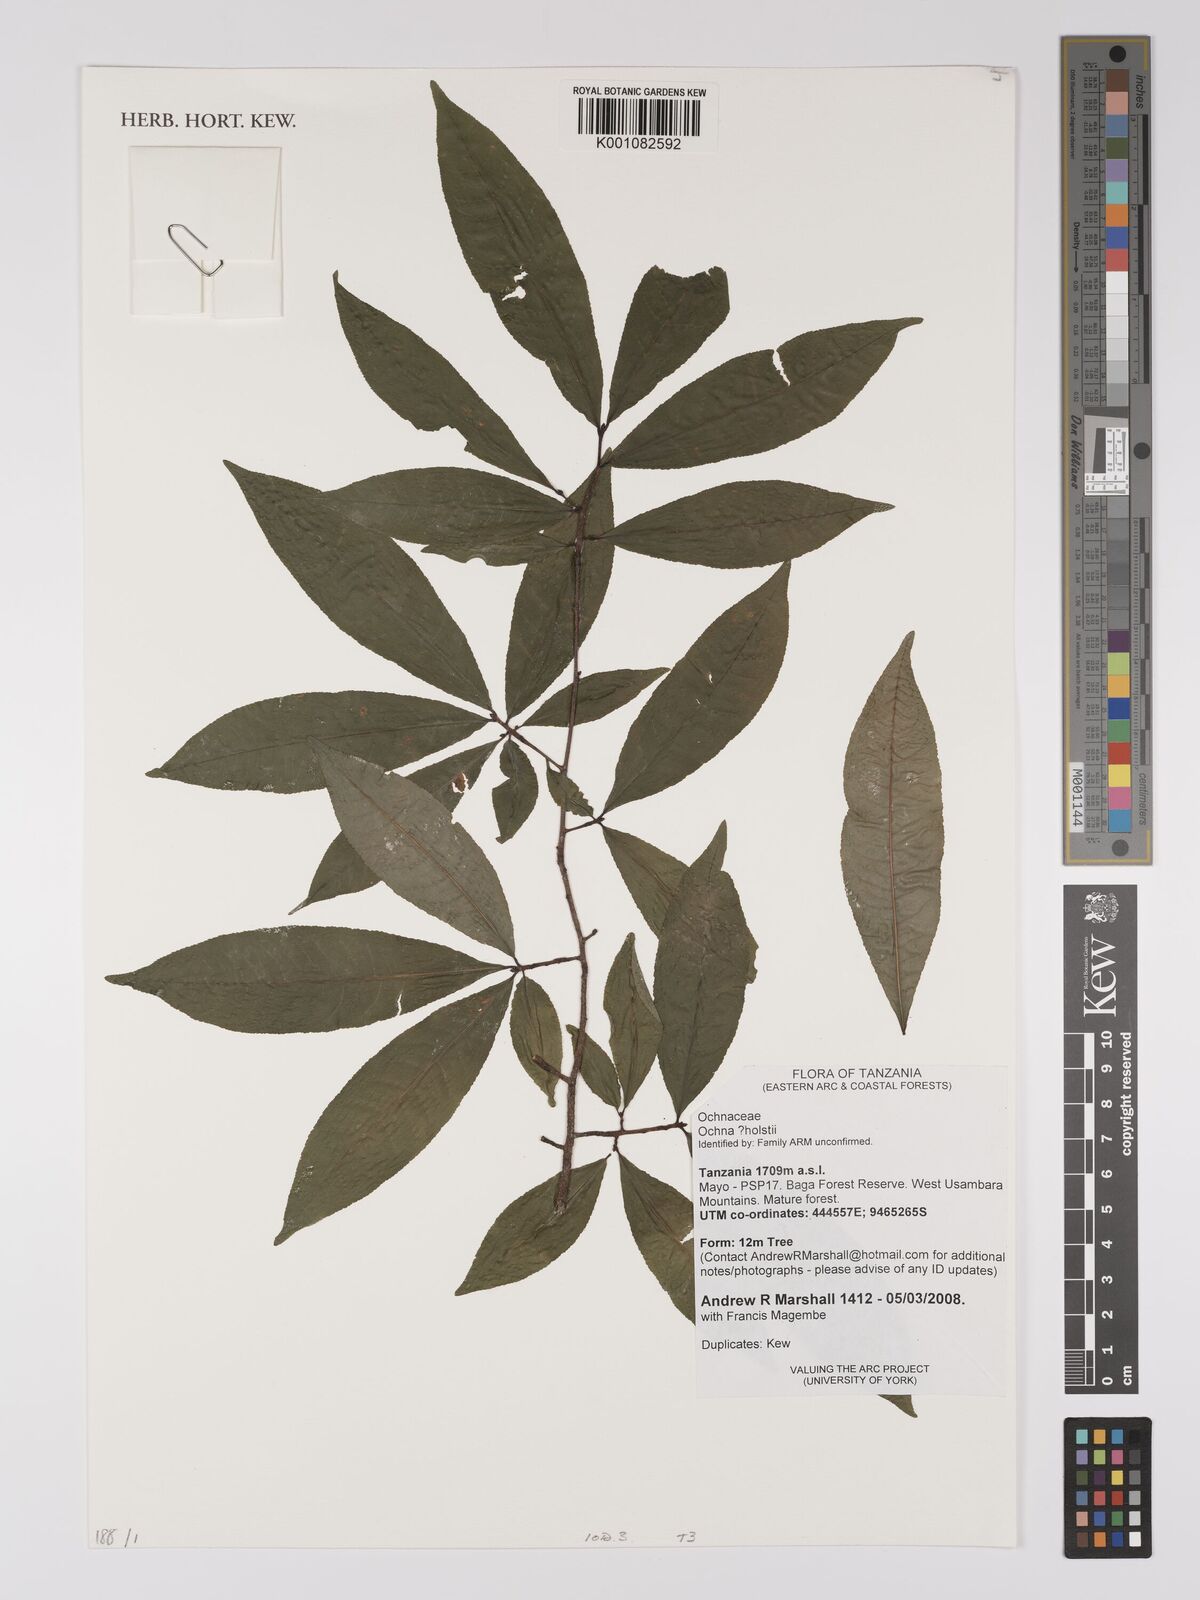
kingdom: Plantae
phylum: Tracheophyta
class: Magnoliopsida
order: Malpighiales
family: Ochnaceae
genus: Ochna
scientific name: Ochna holstii
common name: Red ironwood
